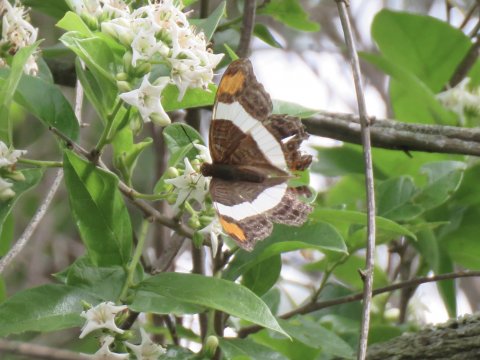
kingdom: Animalia
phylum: Arthropoda
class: Insecta
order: Lepidoptera
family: Nymphalidae
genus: Limenitis
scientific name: Limenitis fessonia
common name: Band-celled Sister
